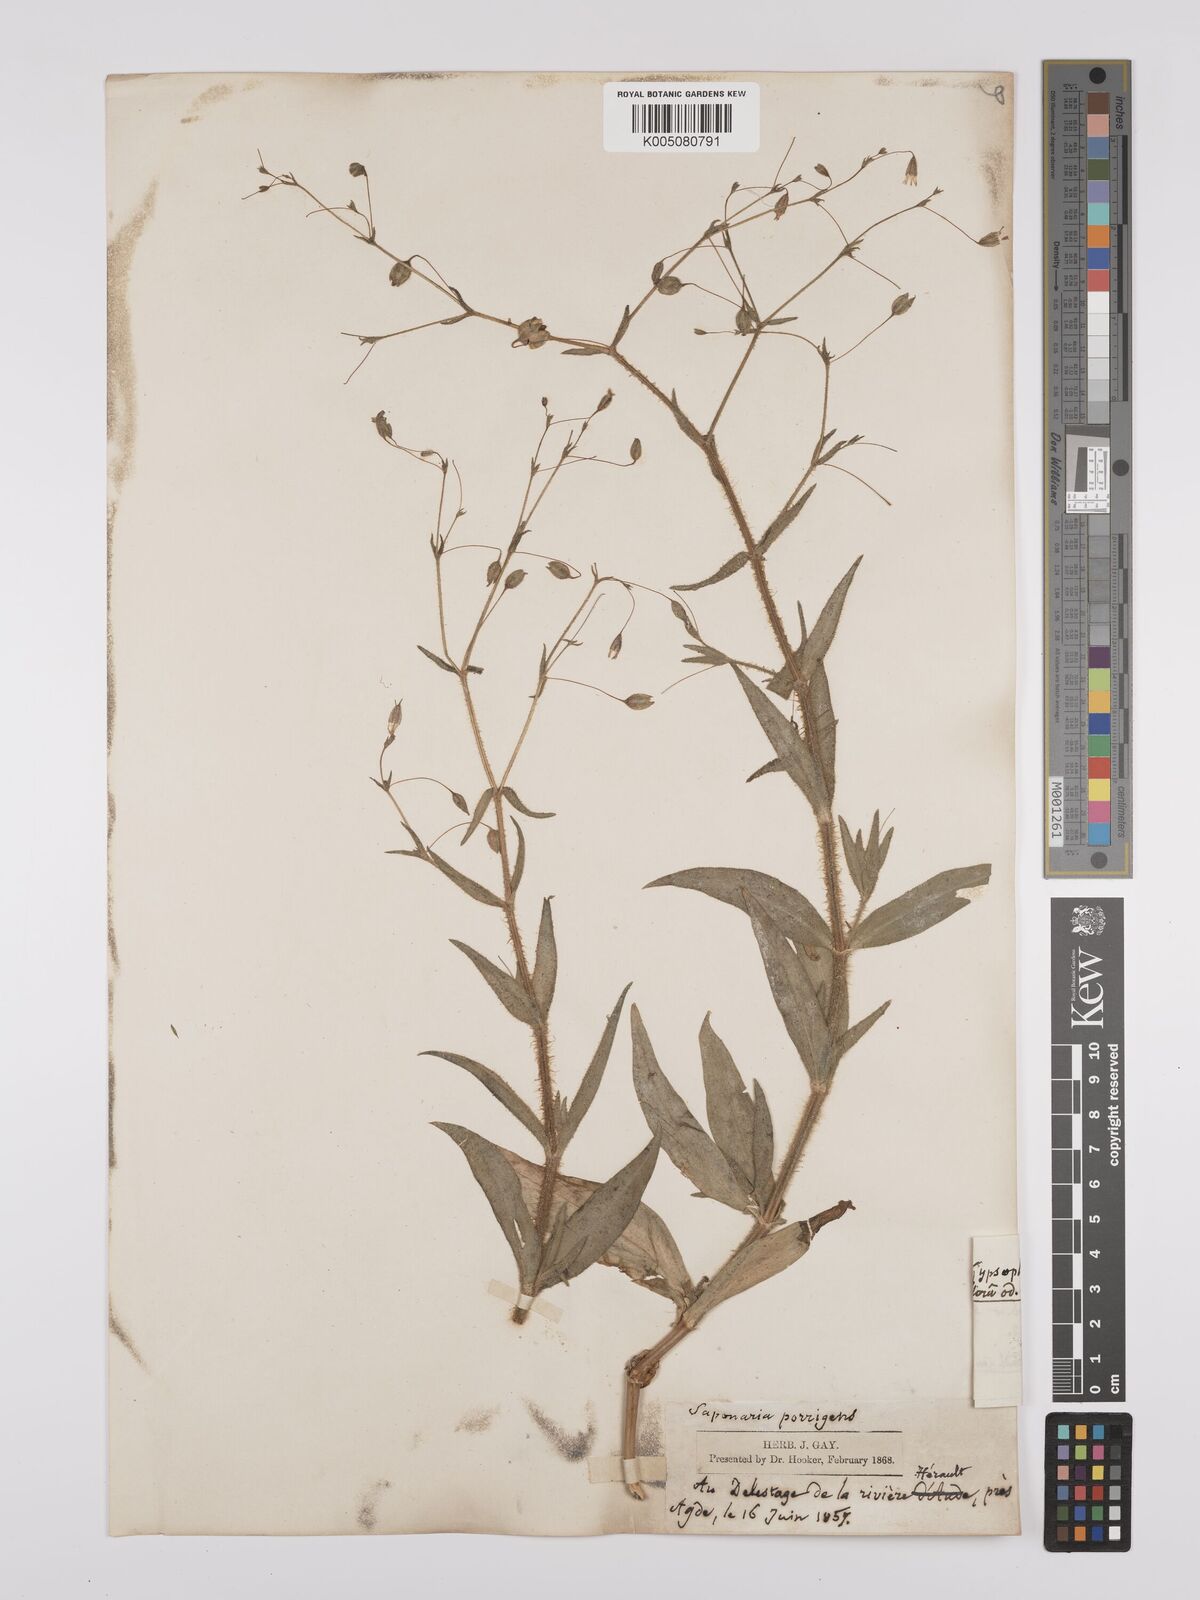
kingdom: Plantae
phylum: Tracheophyta
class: Magnoliopsida
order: Caryophyllales
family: Caryophyllaceae
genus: Gypsophila
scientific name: Gypsophila pilosa
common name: Turkish baby's-breath
